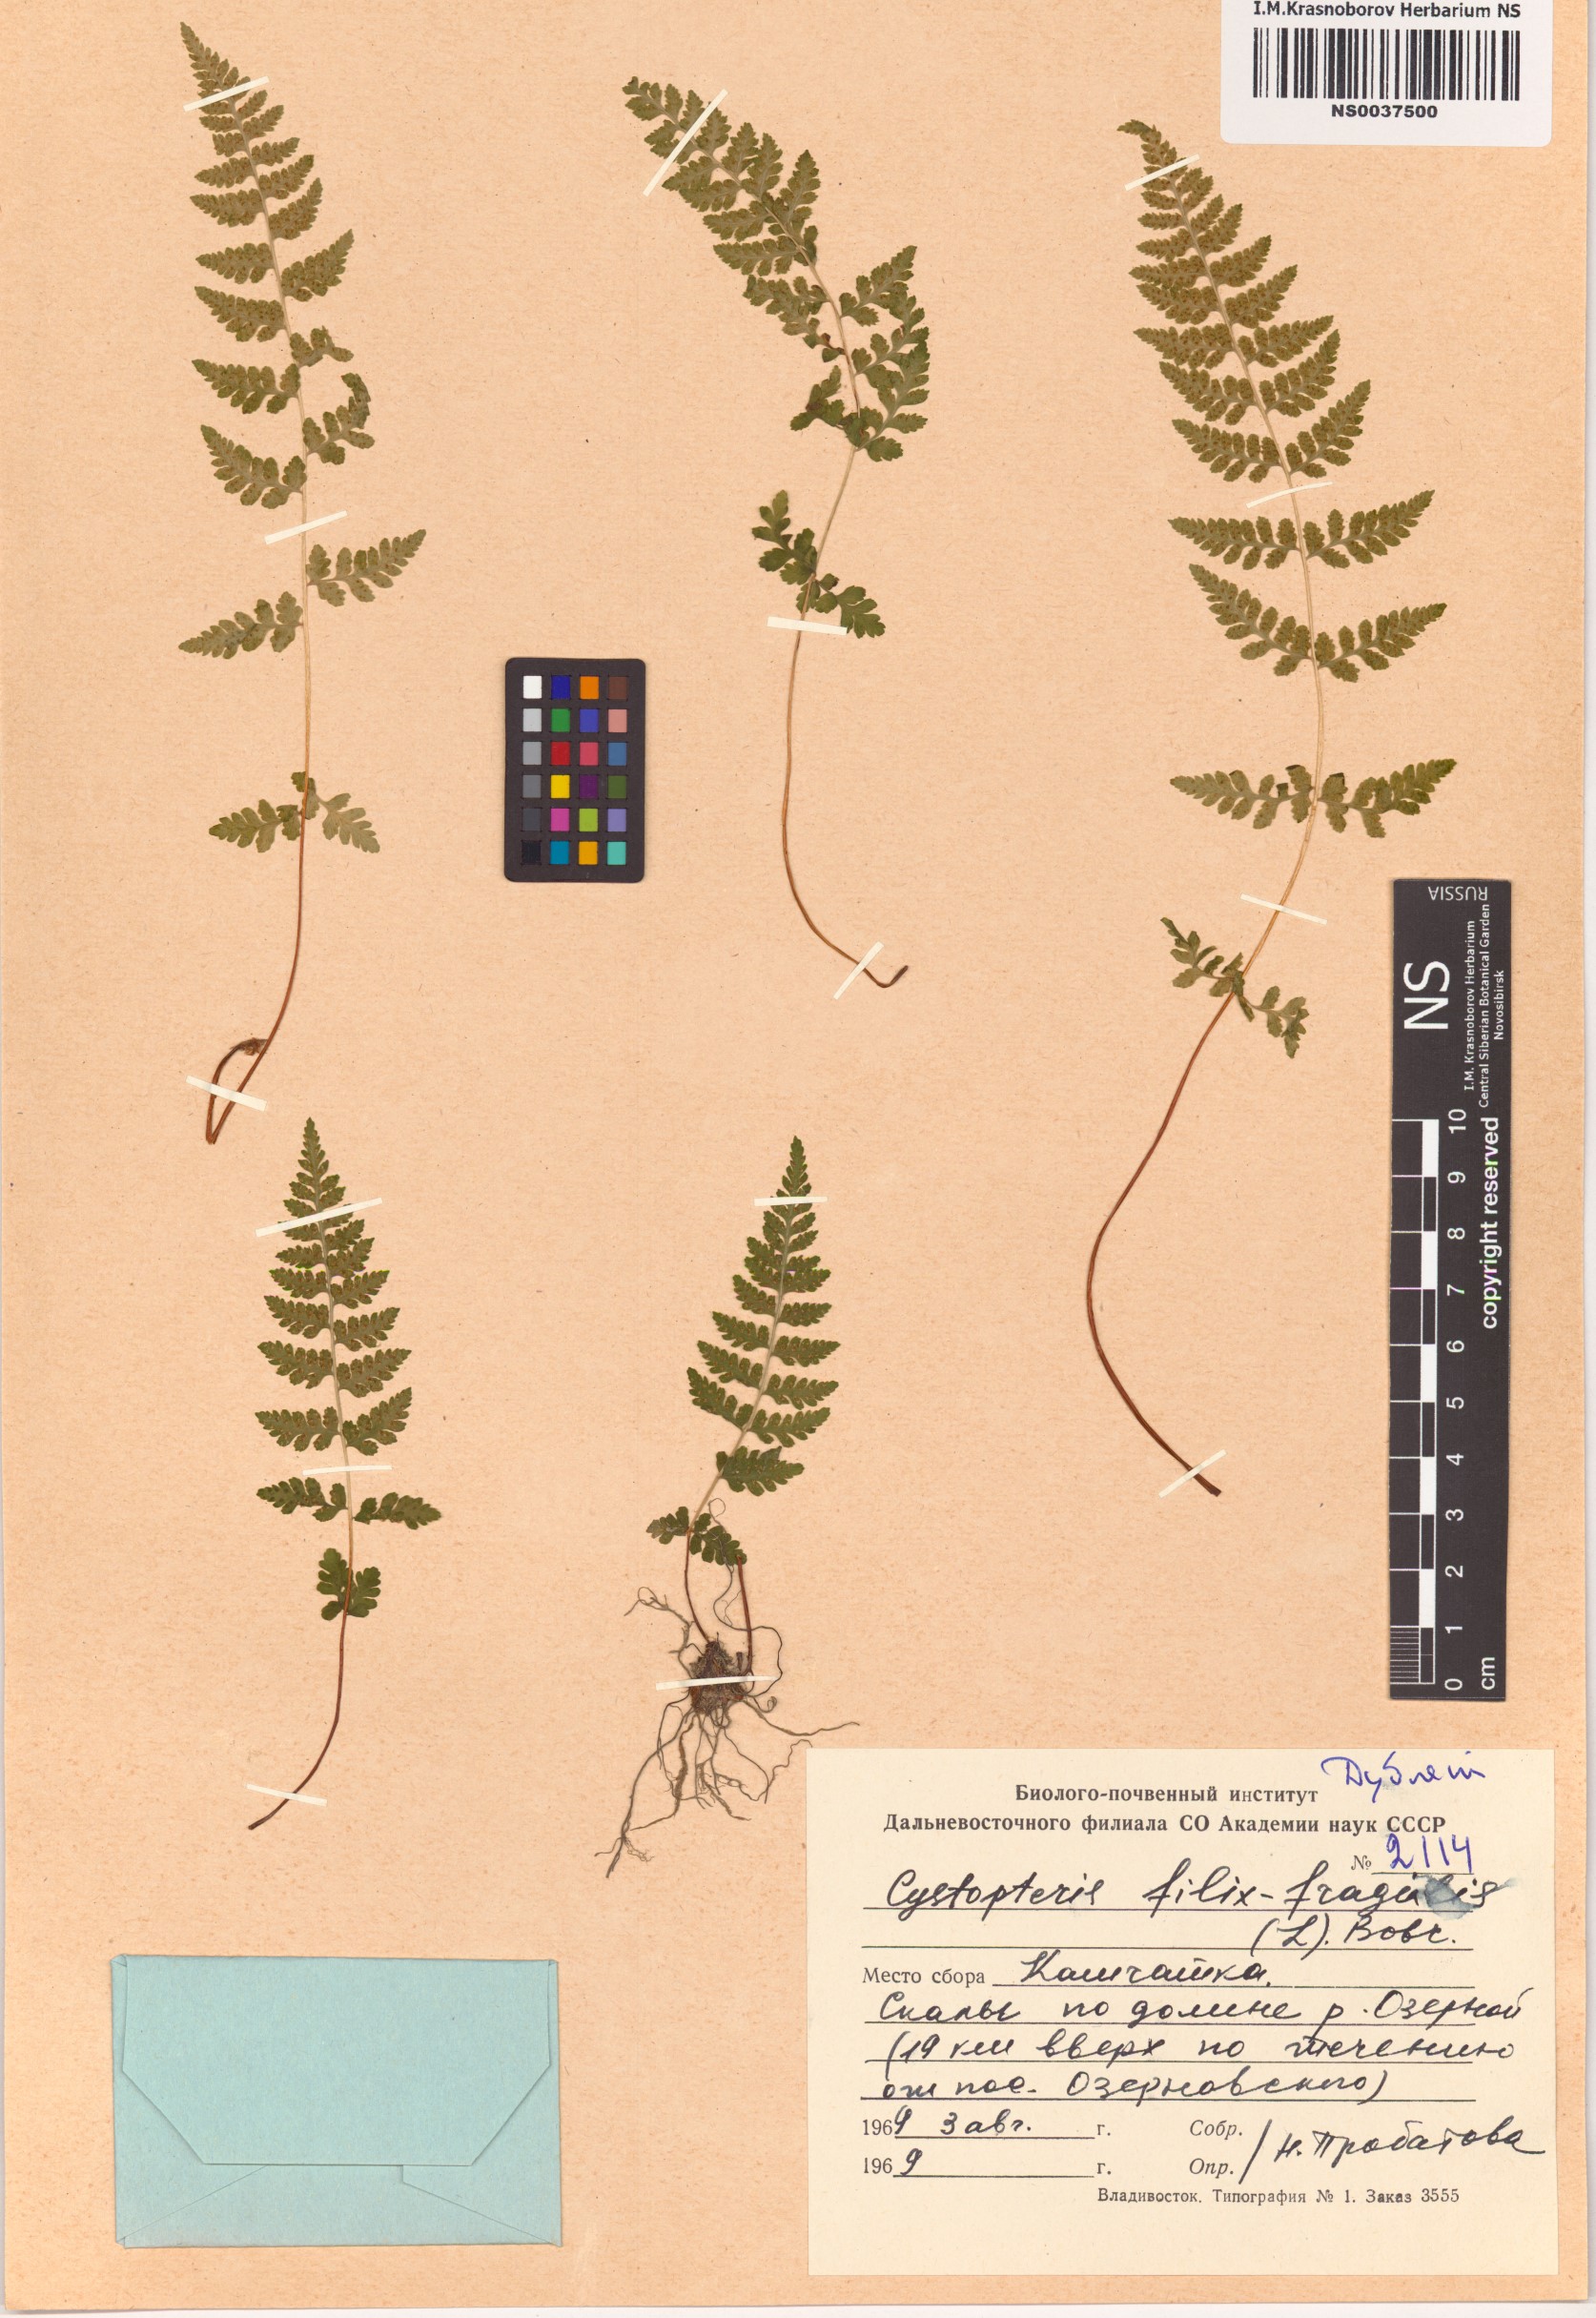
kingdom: Plantae
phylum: Tracheophyta
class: Polypodiopsida
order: Polypodiales
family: Cystopteridaceae
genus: Cystopteris
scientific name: Cystopteris fragilis
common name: Brittle bladder fern
